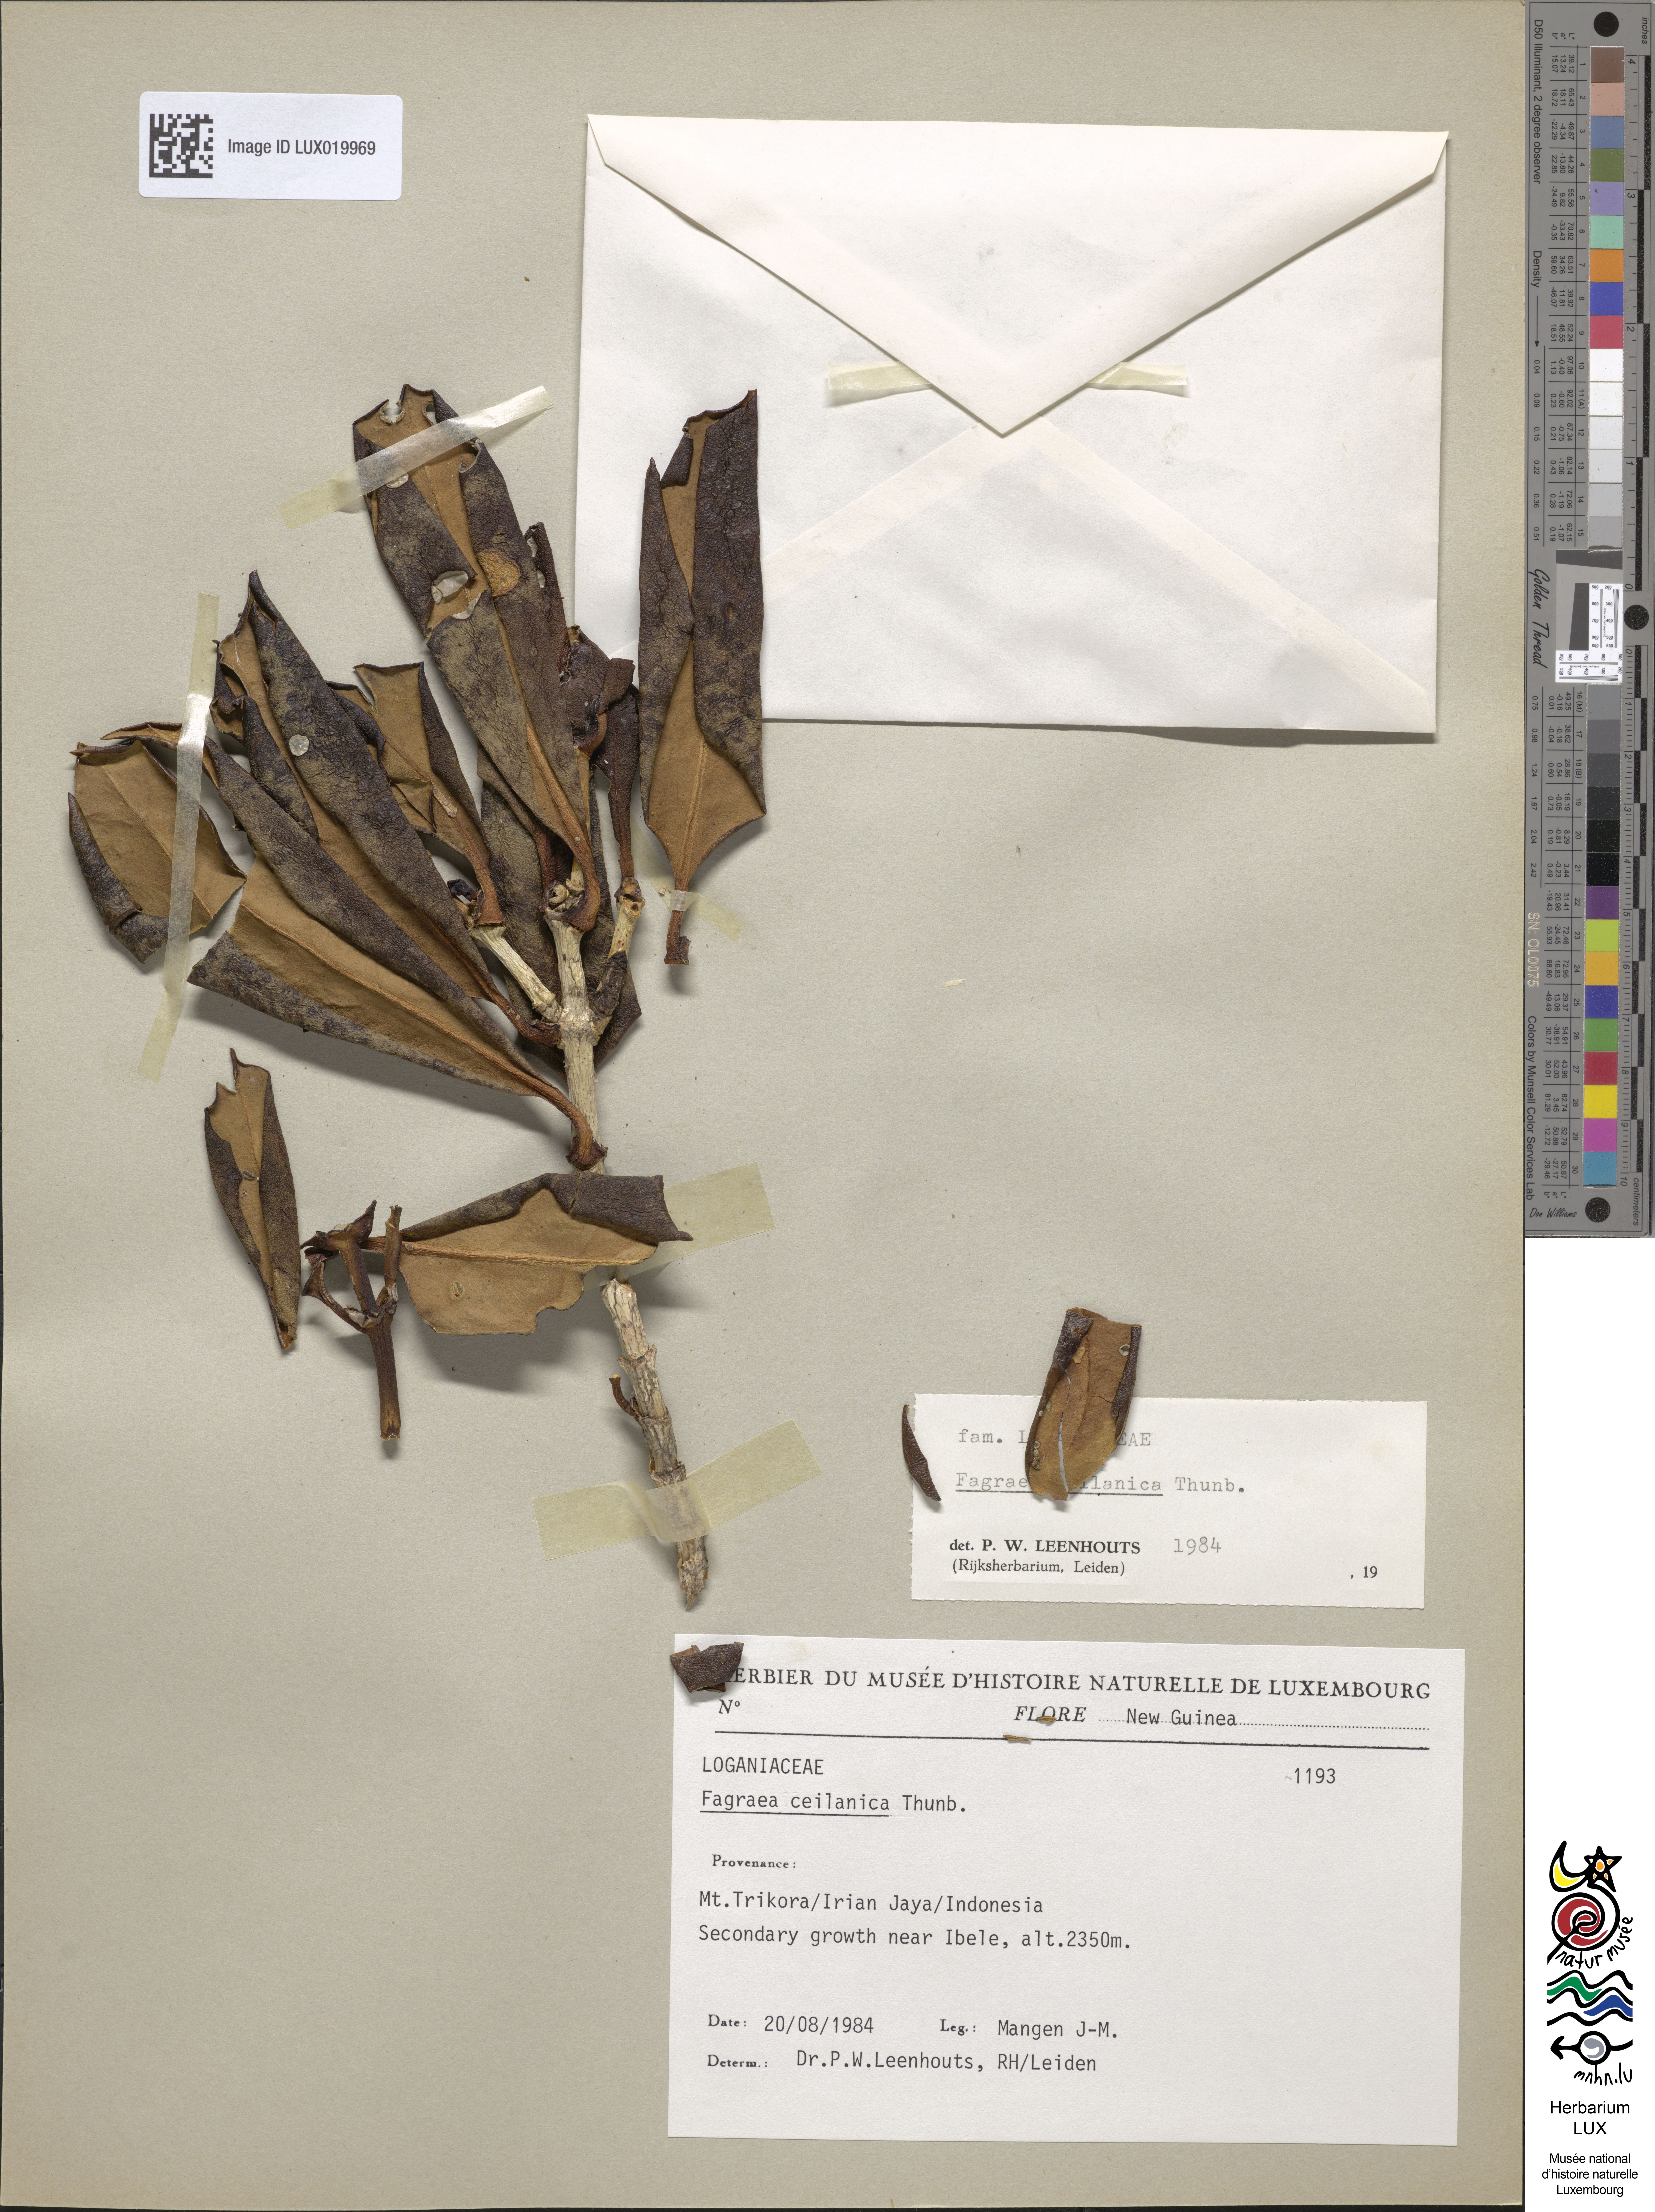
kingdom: Plantae
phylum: Tracheophyta
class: Magnoliopsida
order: Gentianales
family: Gentianaceae
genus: Fagraea
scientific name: Fagraea ceilanica
